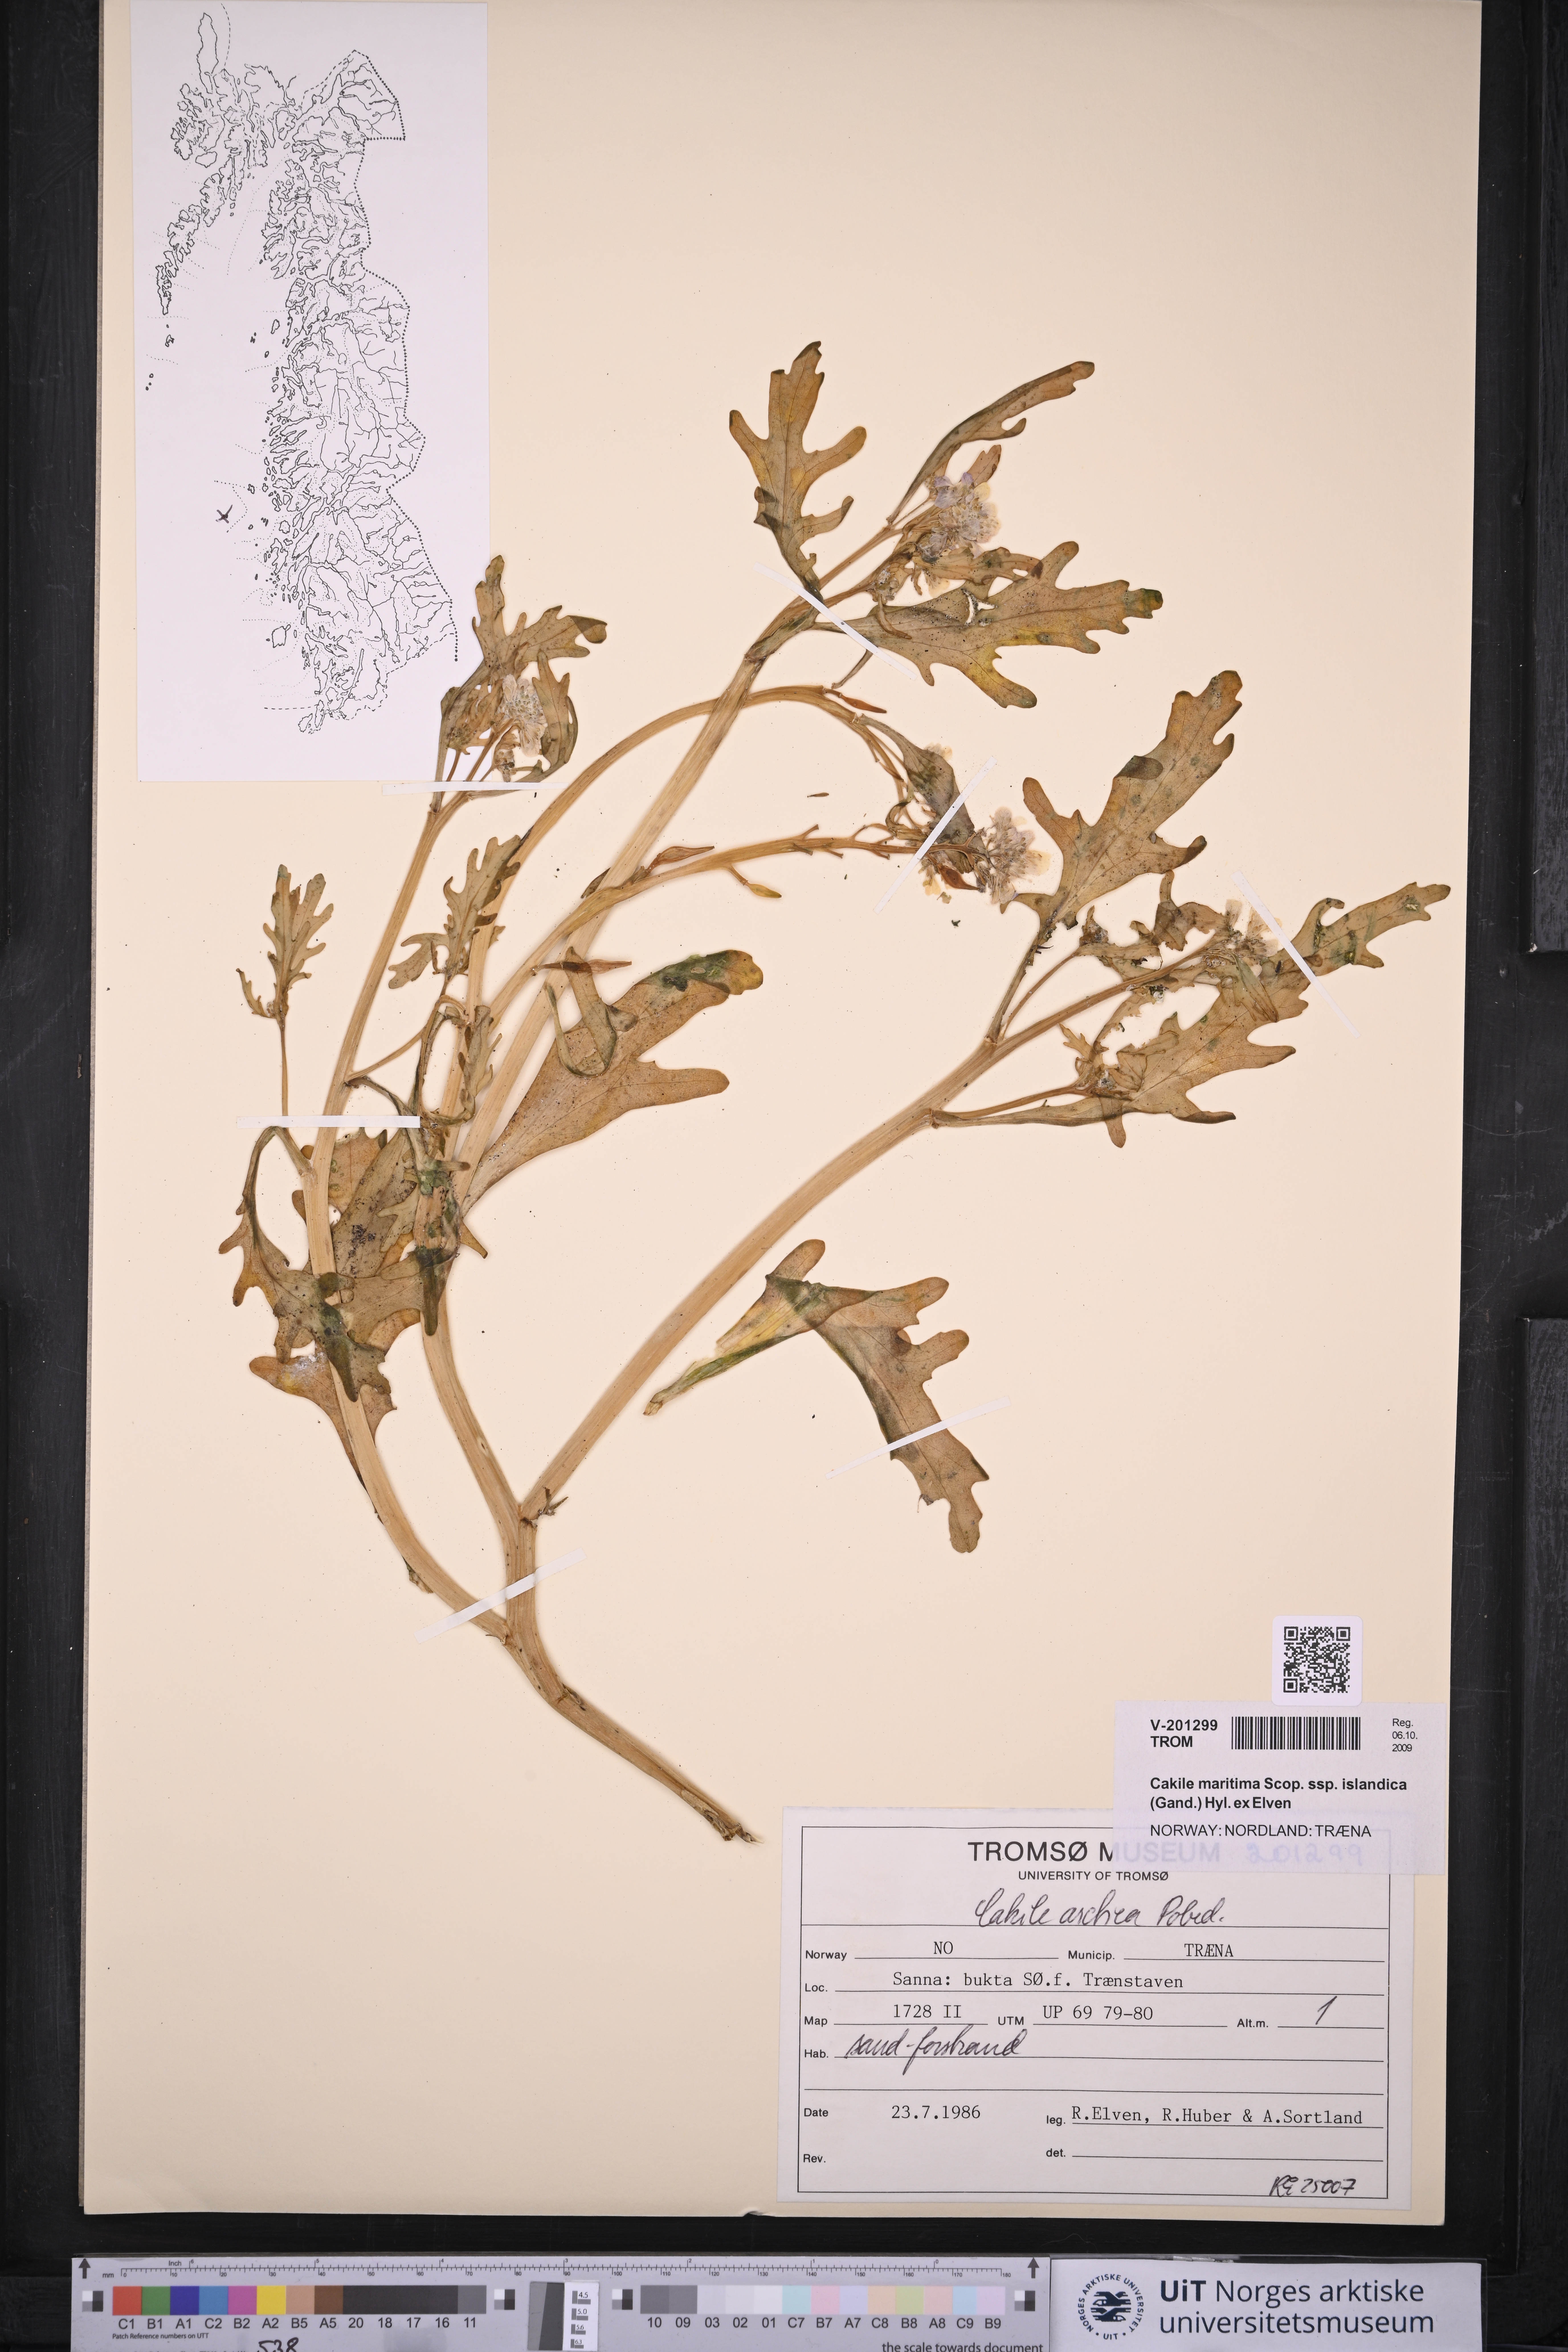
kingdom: Plantae
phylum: Tracheophyta
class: Magnoliopsida
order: Brassicales
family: Brassicaceae
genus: Cakile
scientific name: Cakile arctica
